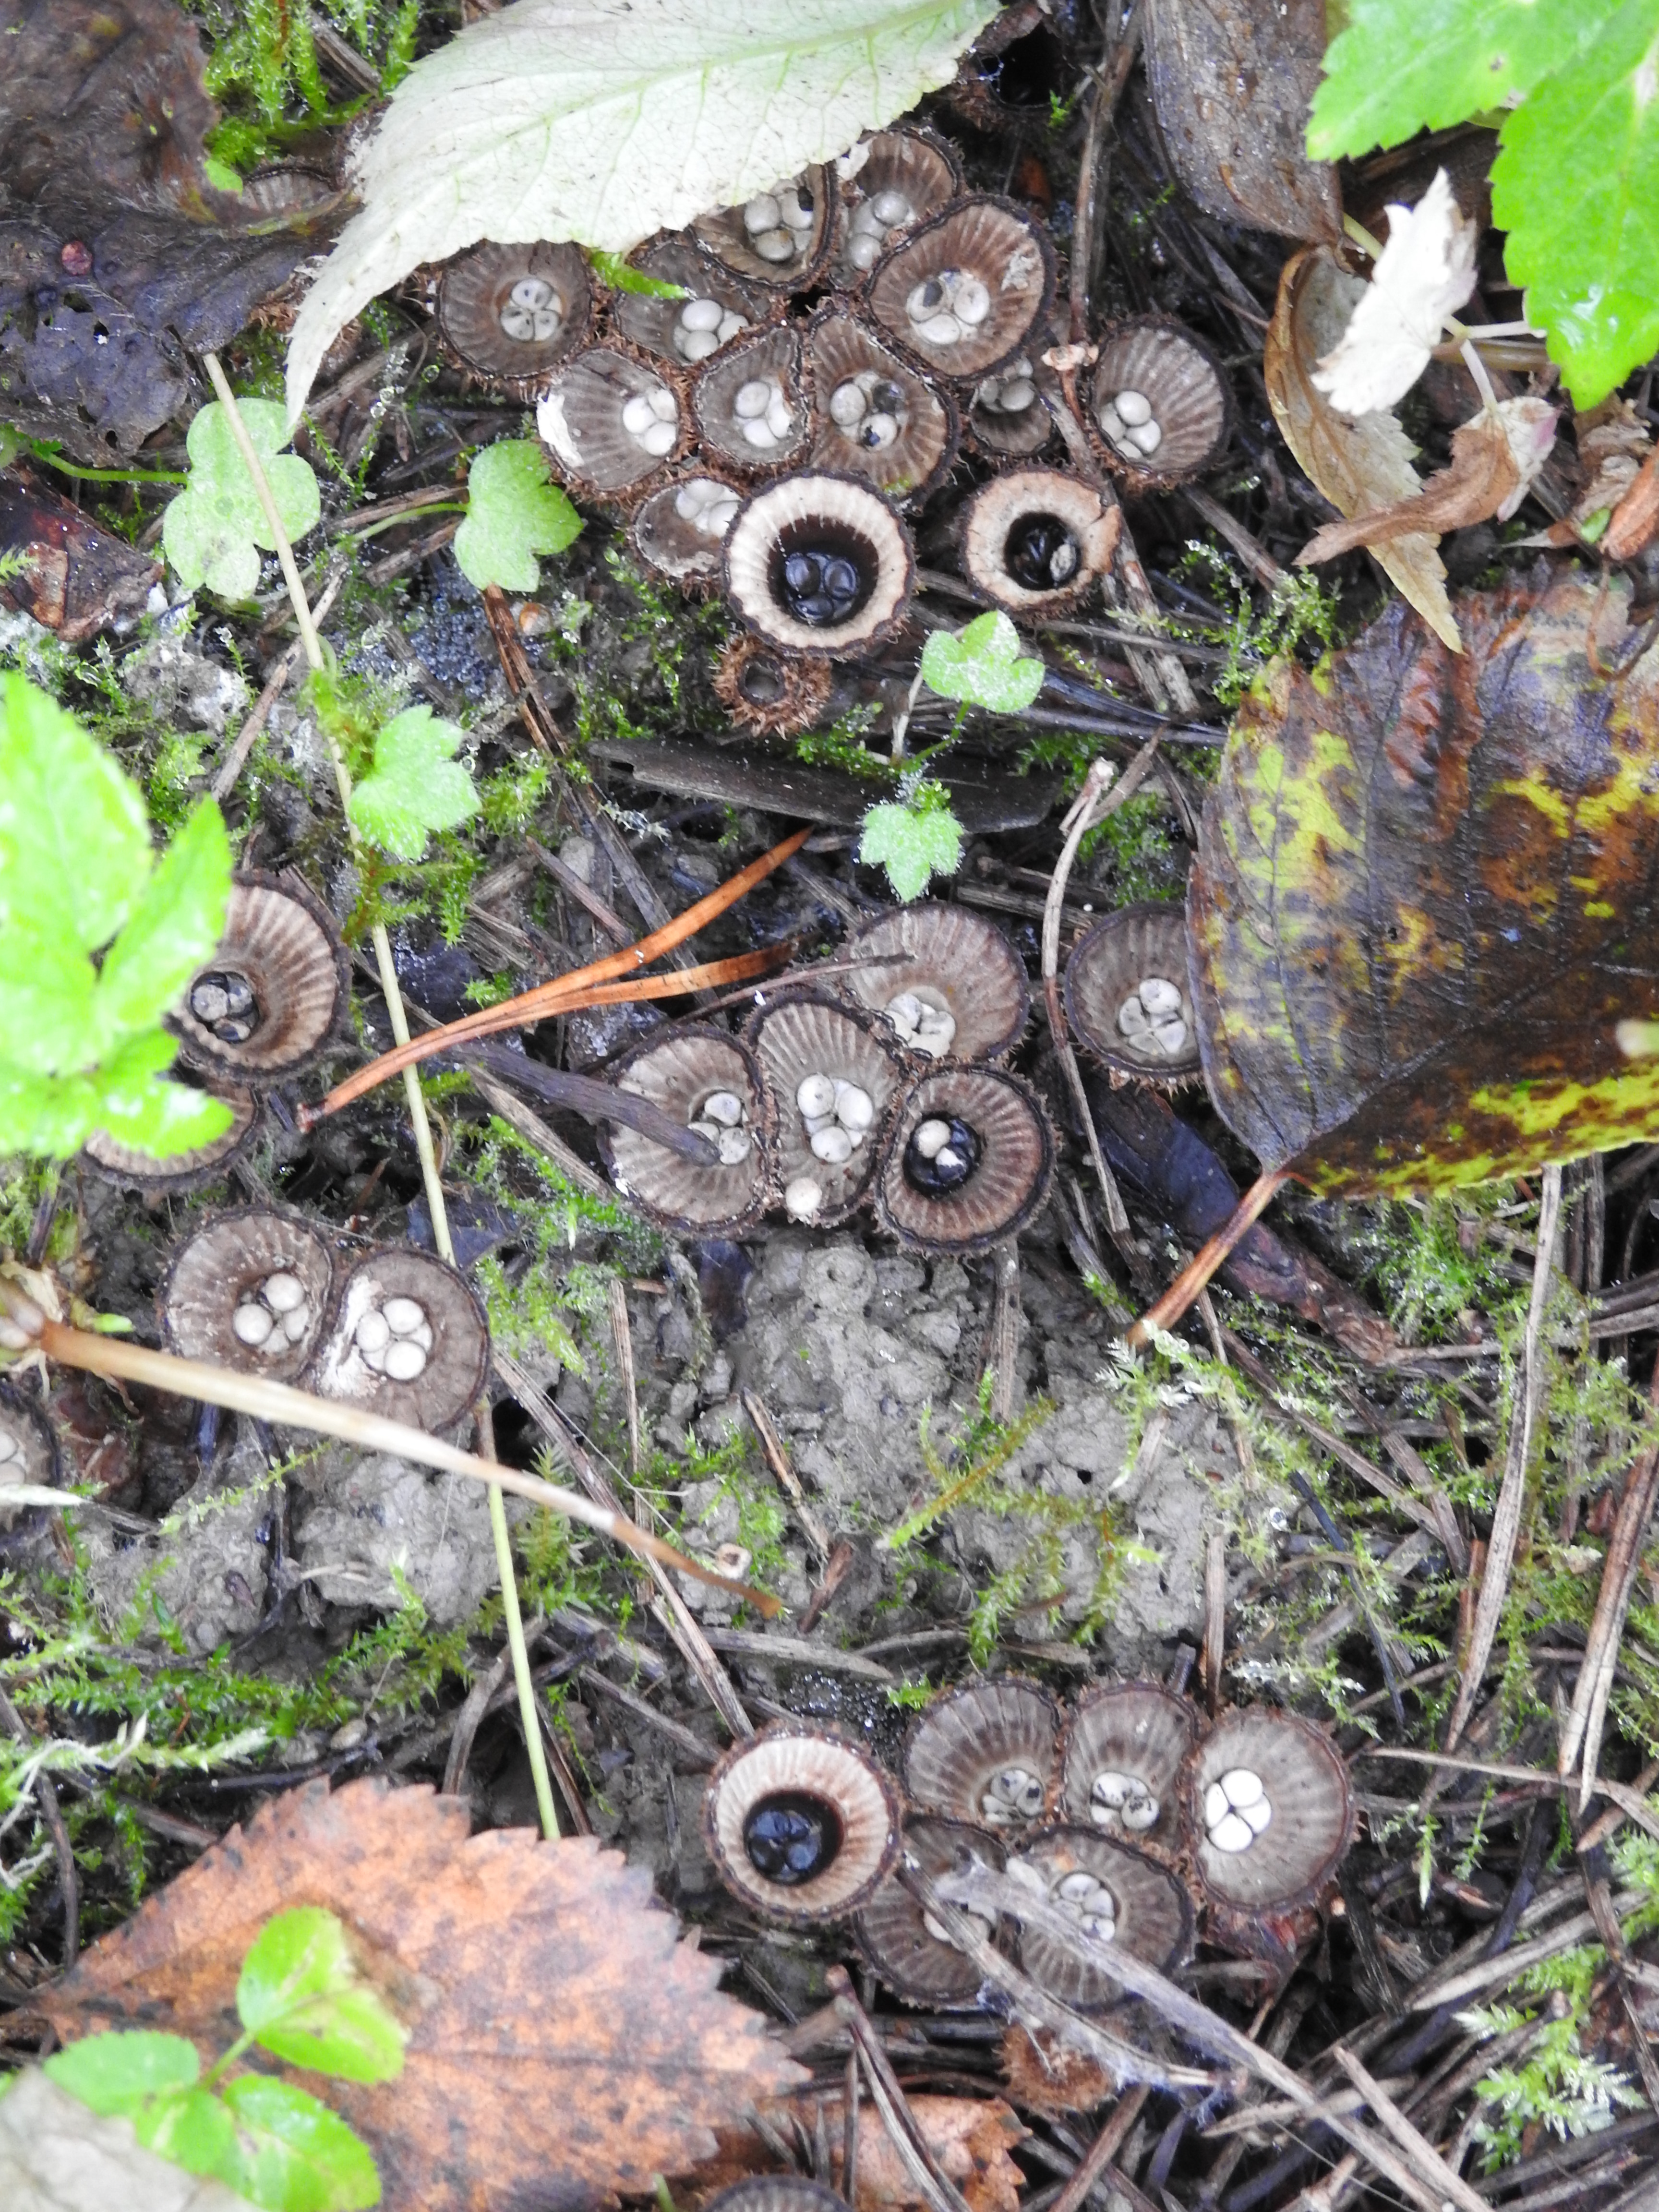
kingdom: Fungi
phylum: Basidiomycota
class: Agaricomycetes
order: Agaricales
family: Agaricaceae
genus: Cyathus
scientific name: Cyathus striatus
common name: Fluted bird's nest
